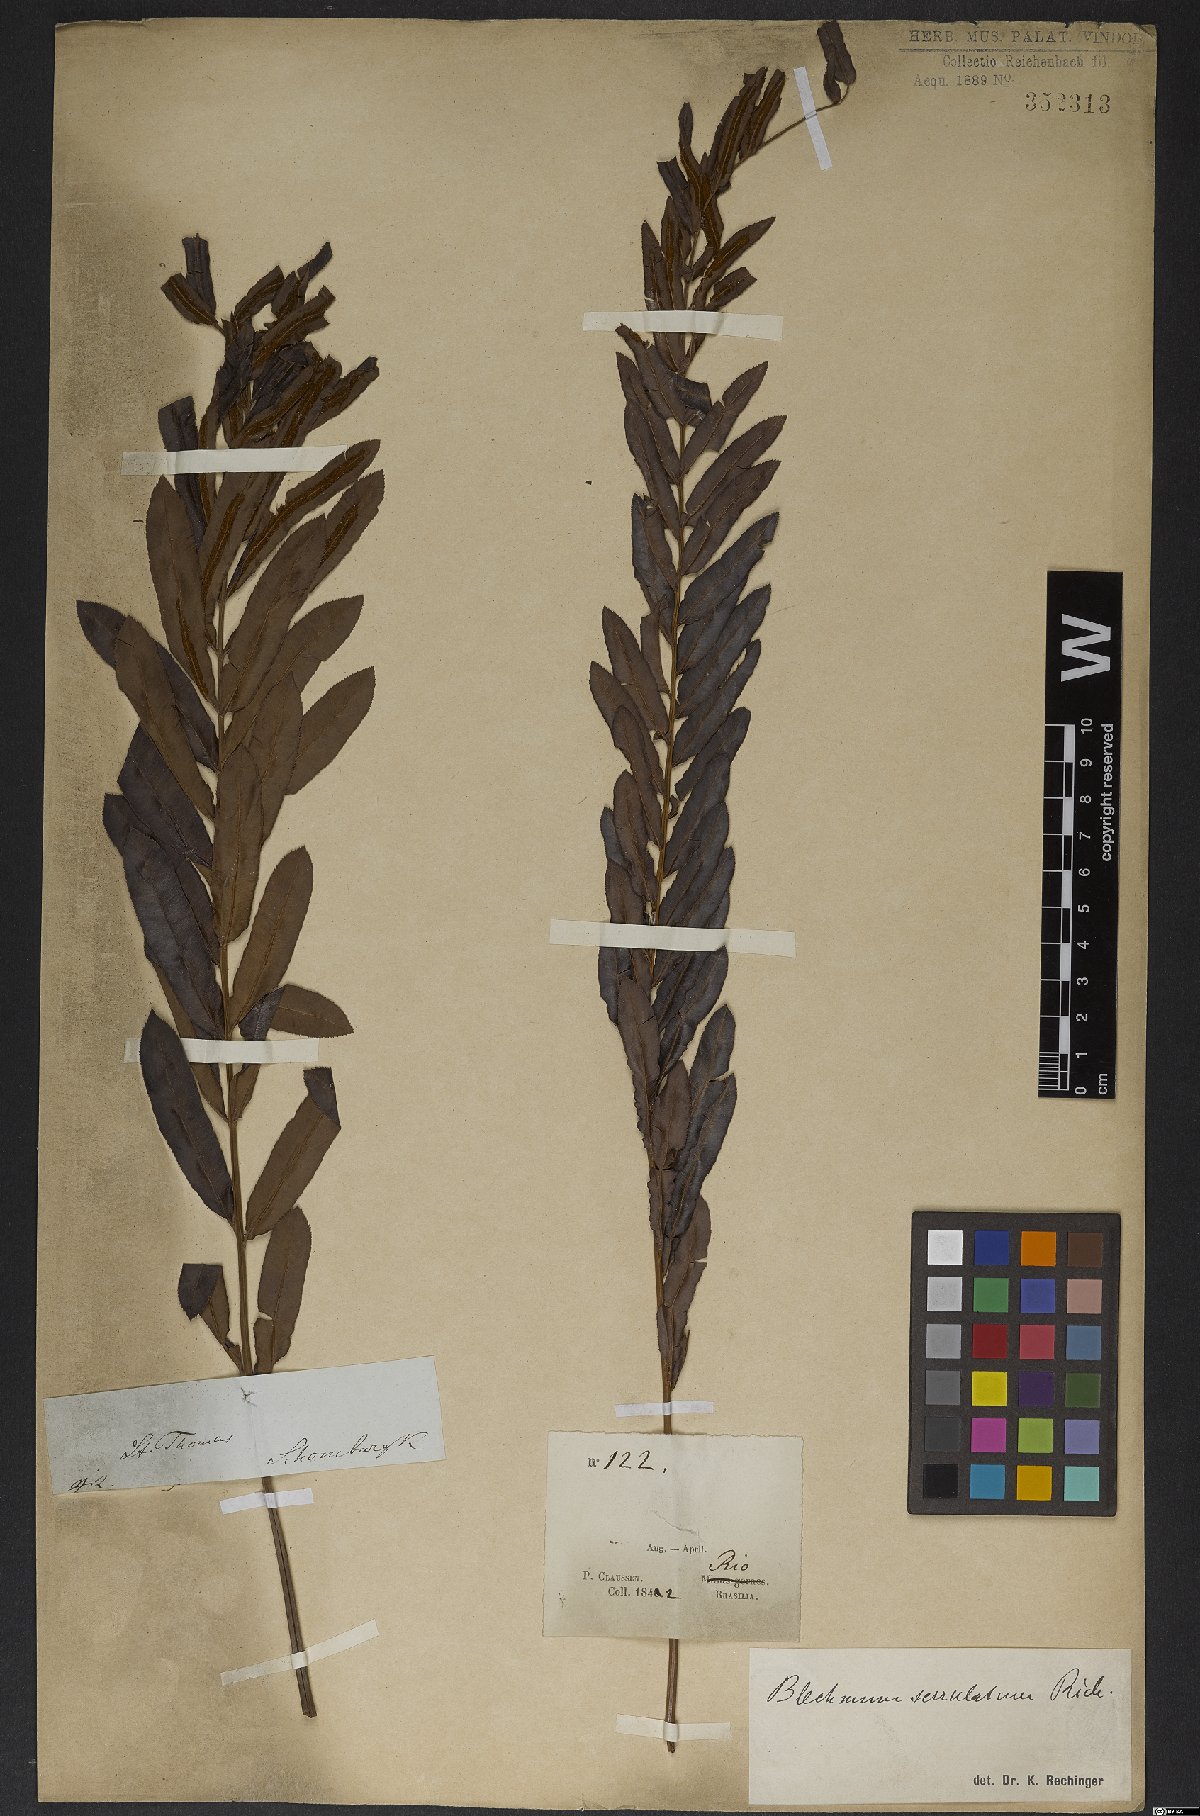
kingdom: Plantae
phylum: Tracheophyta
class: Polypodiopsida
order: Polypodiales
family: Blechnaceae
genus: Telmatoblechnum
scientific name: Telmatoblechnum serrulatum
